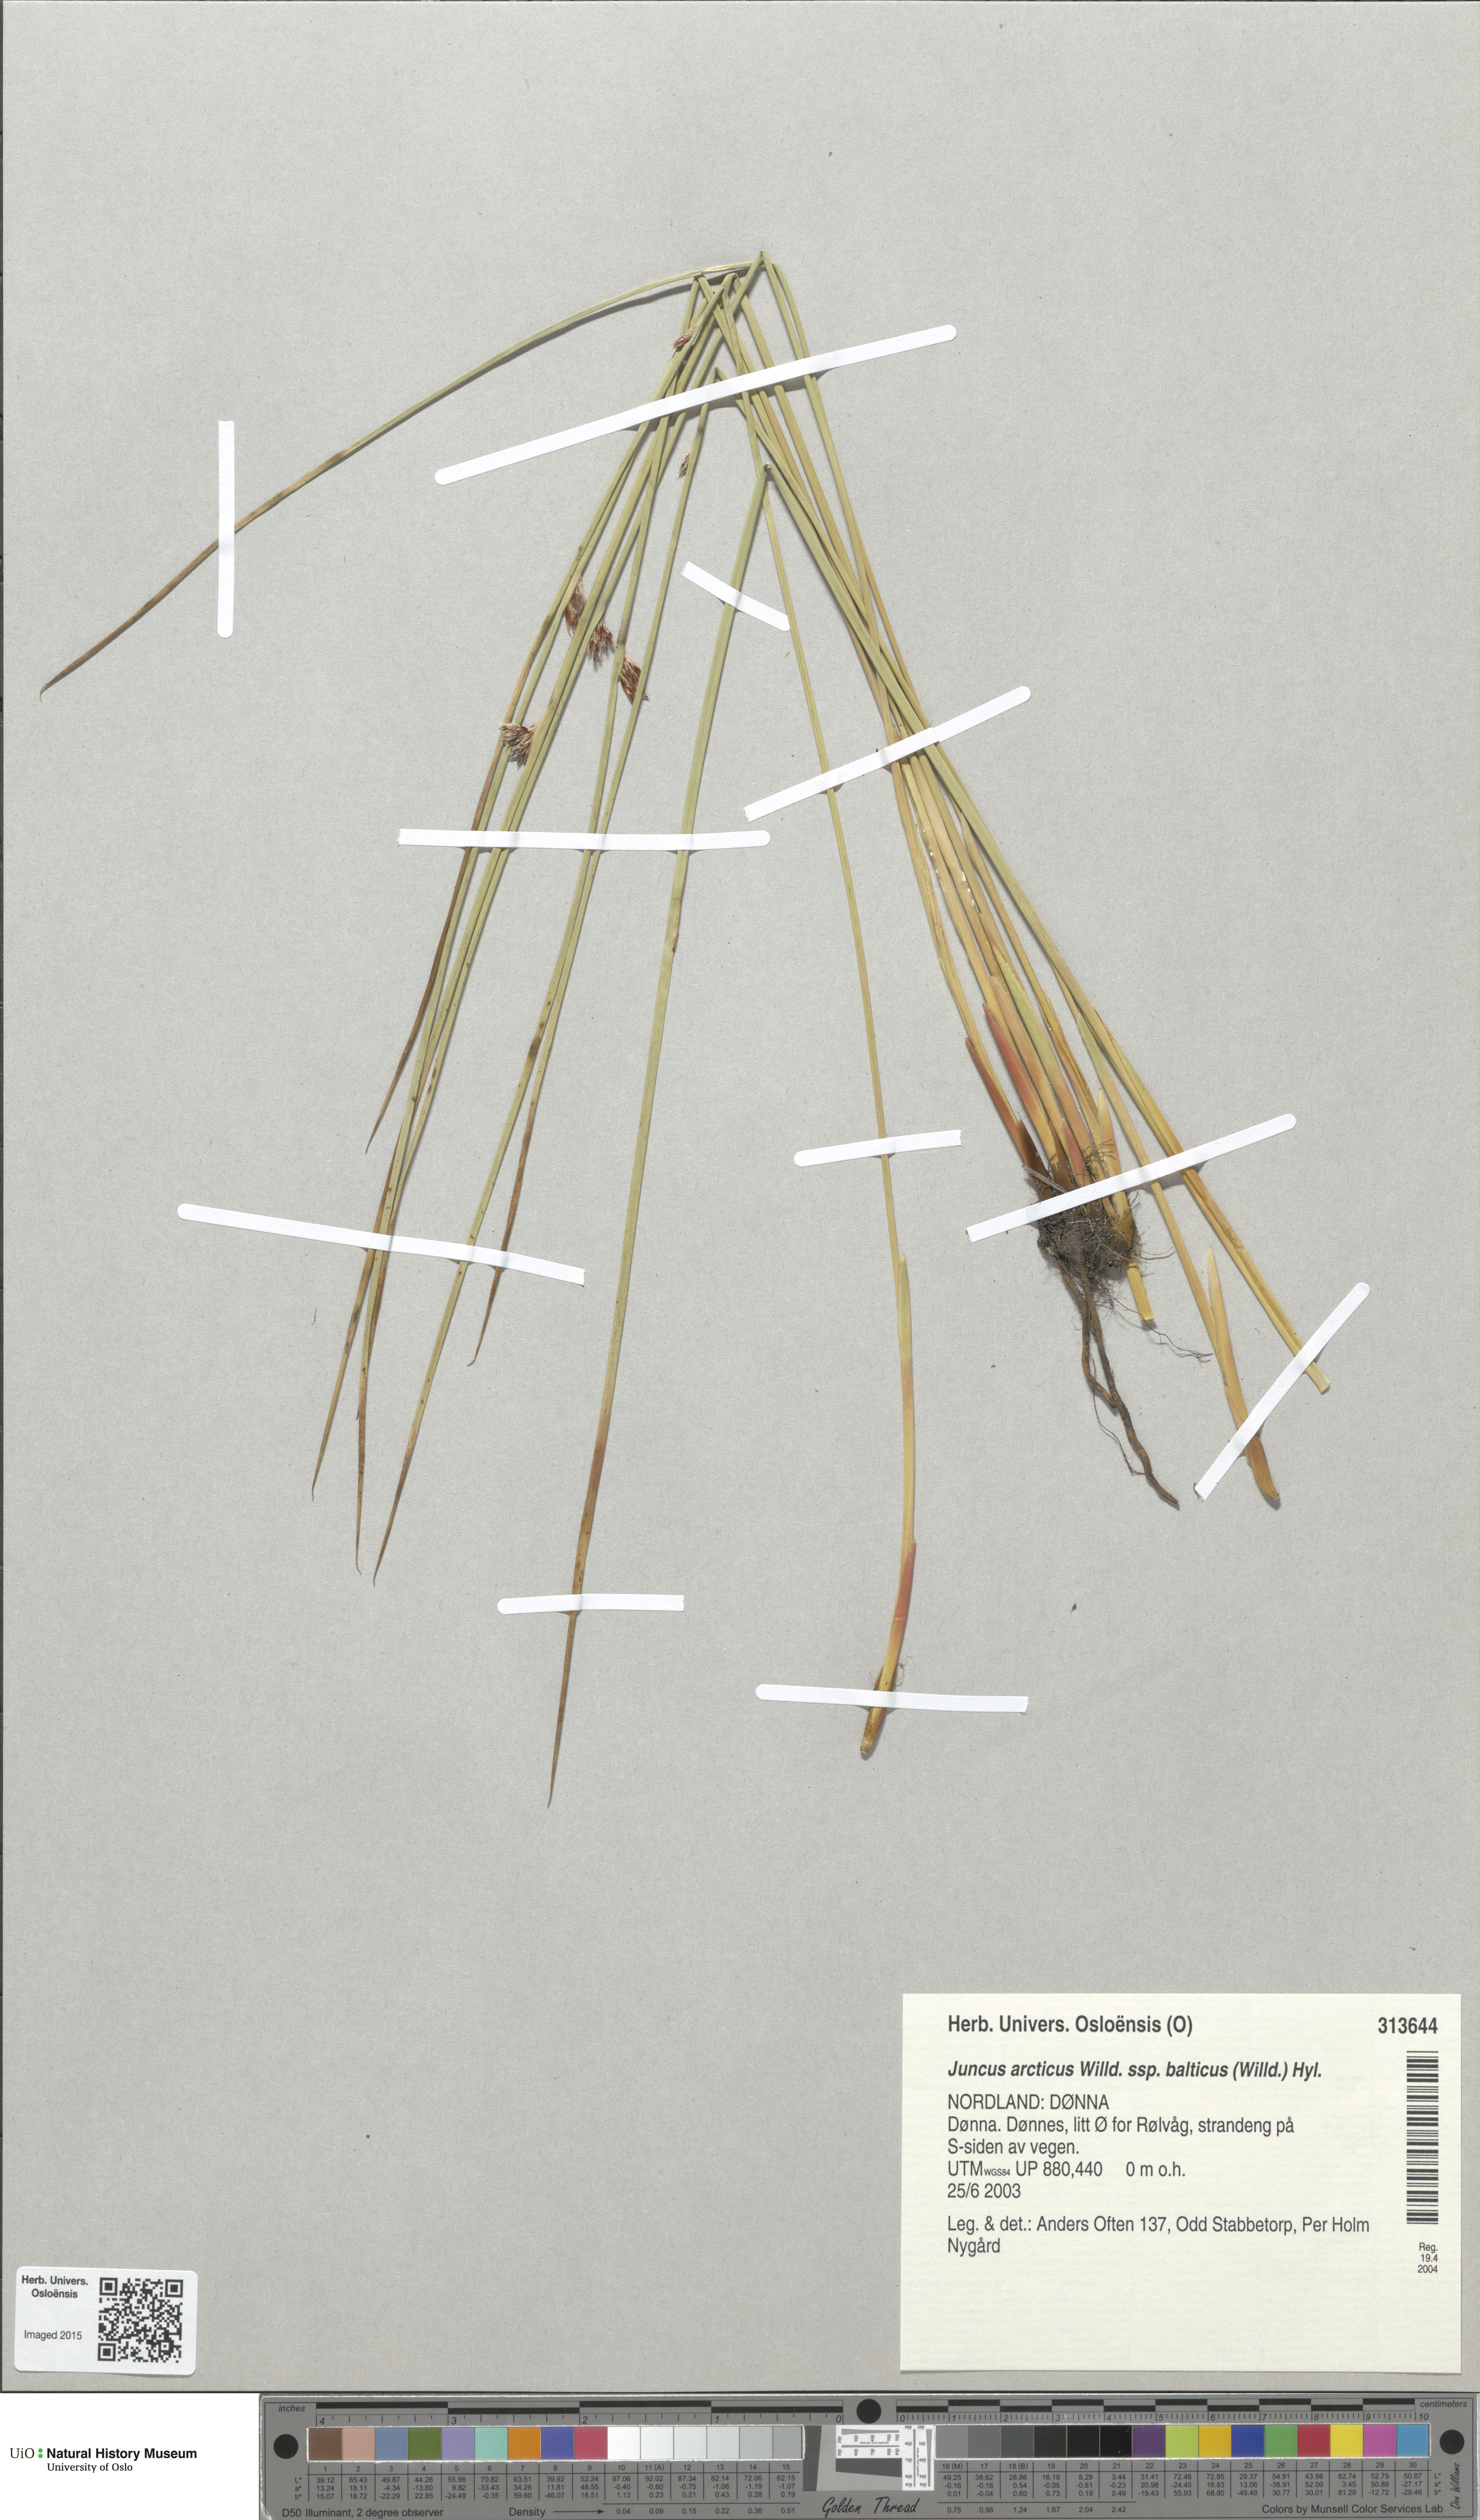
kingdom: Plantae
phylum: Tracheophyta
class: Liliopsida
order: Poales
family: Juncaceae
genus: Juncus
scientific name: Juncus balticus
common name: Baltic rush
